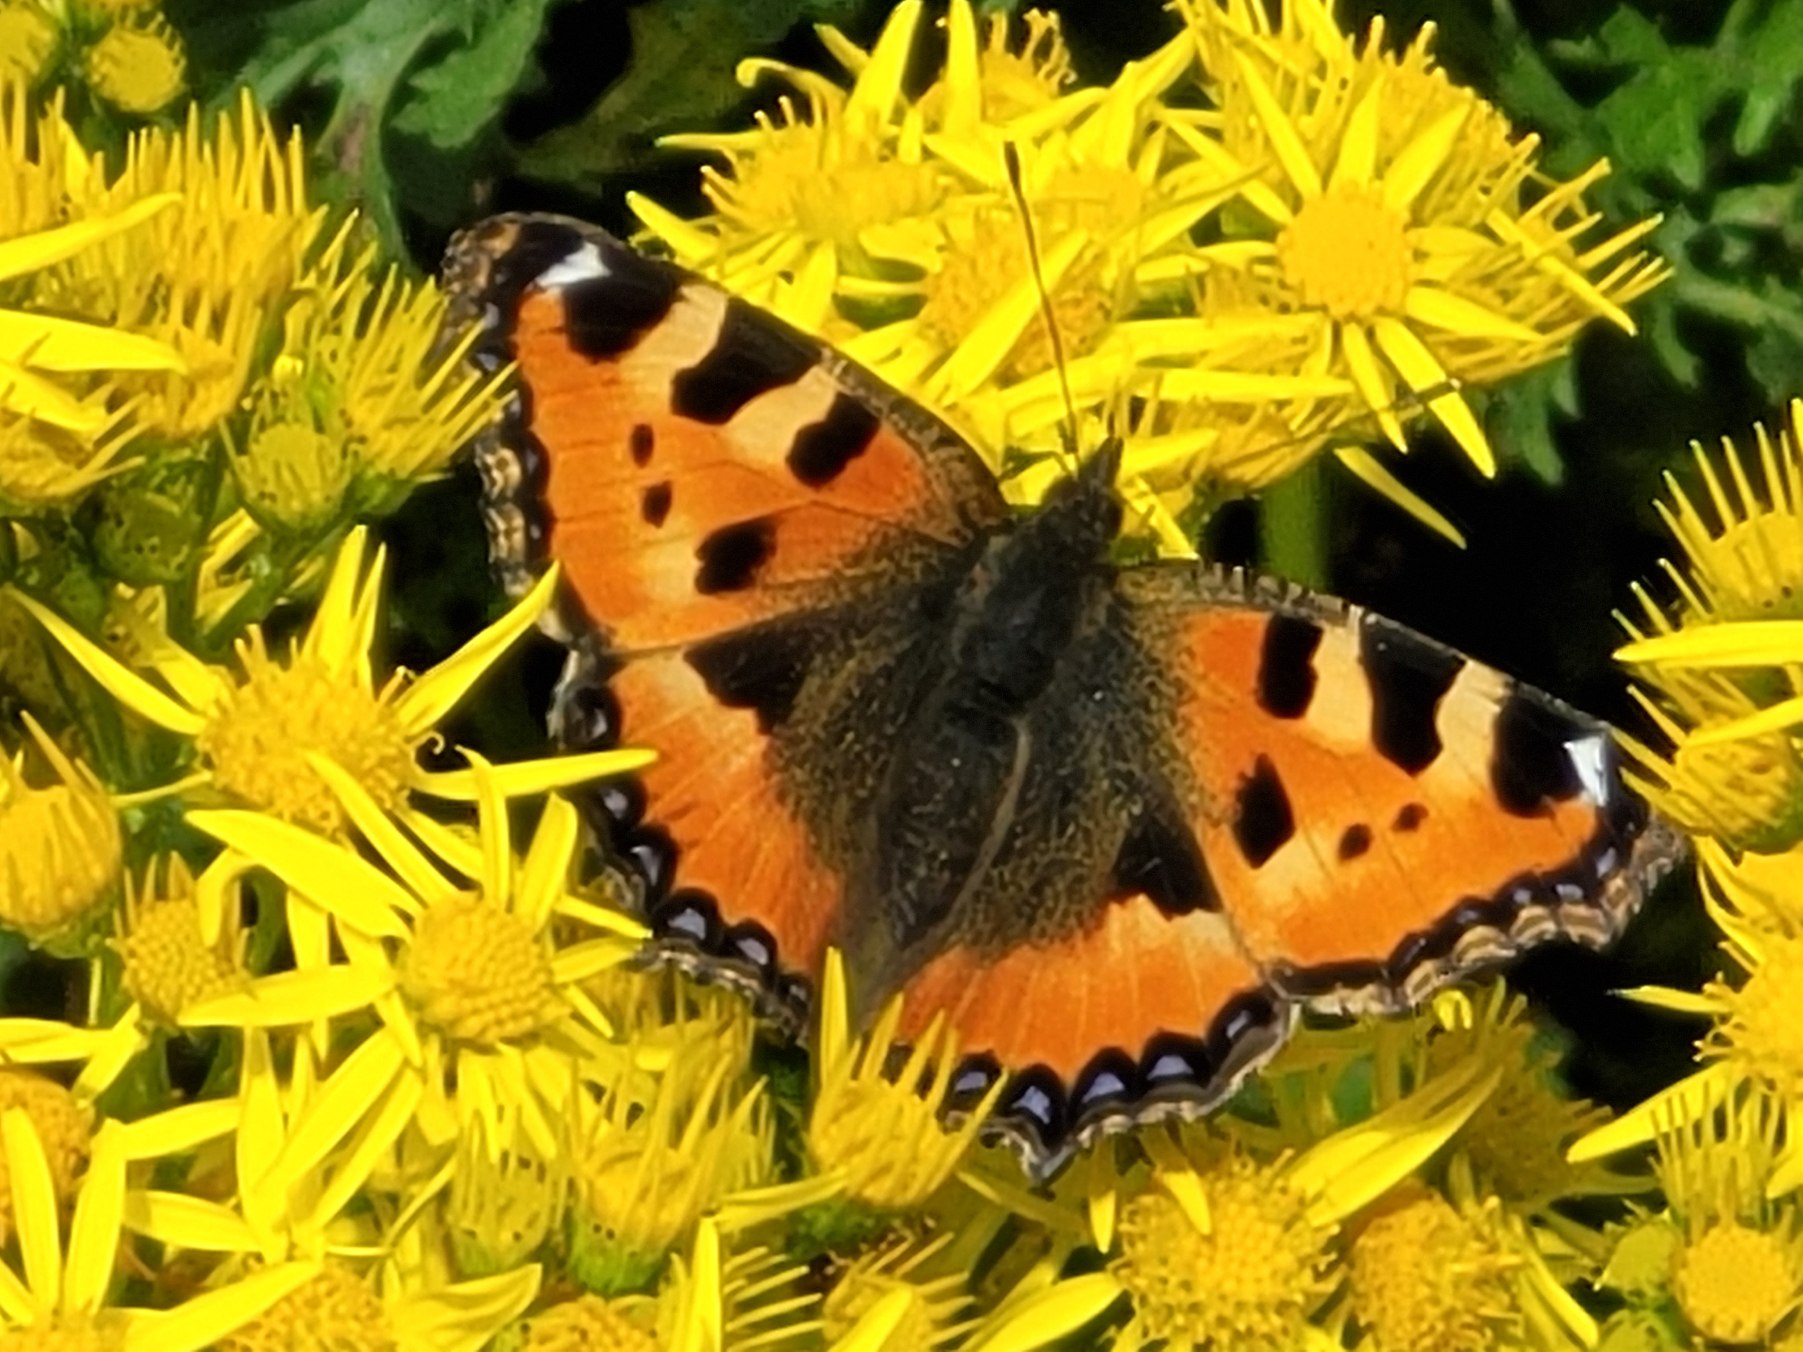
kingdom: Animalia
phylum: Arthropoda
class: Insecta
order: Lepidoptera
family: Nymphalidae
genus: Aglais
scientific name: Aglais urticae
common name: Nældens takvinge
